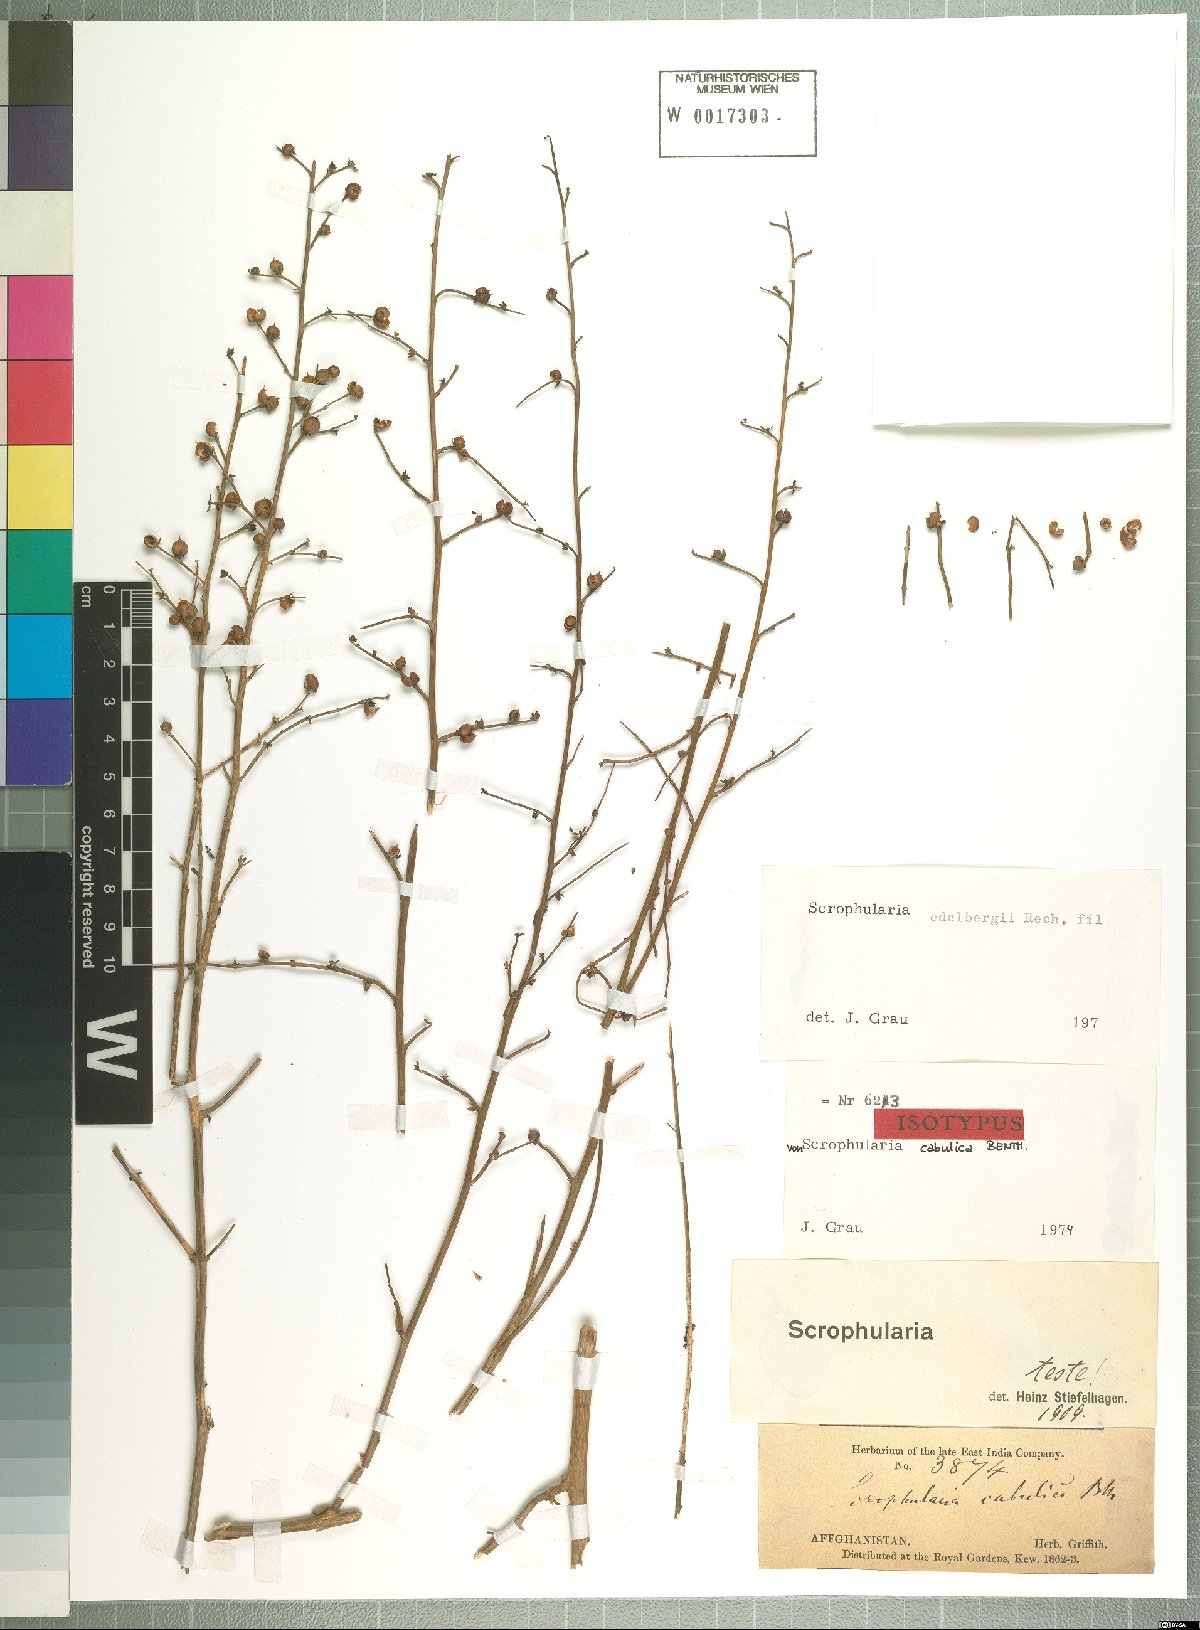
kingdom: Plantae
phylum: Tracheophyta
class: Magnoliopsida
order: Lamiales
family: Scrophulariaceae
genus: Scrophularia
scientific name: Scrophularia edelbergii
